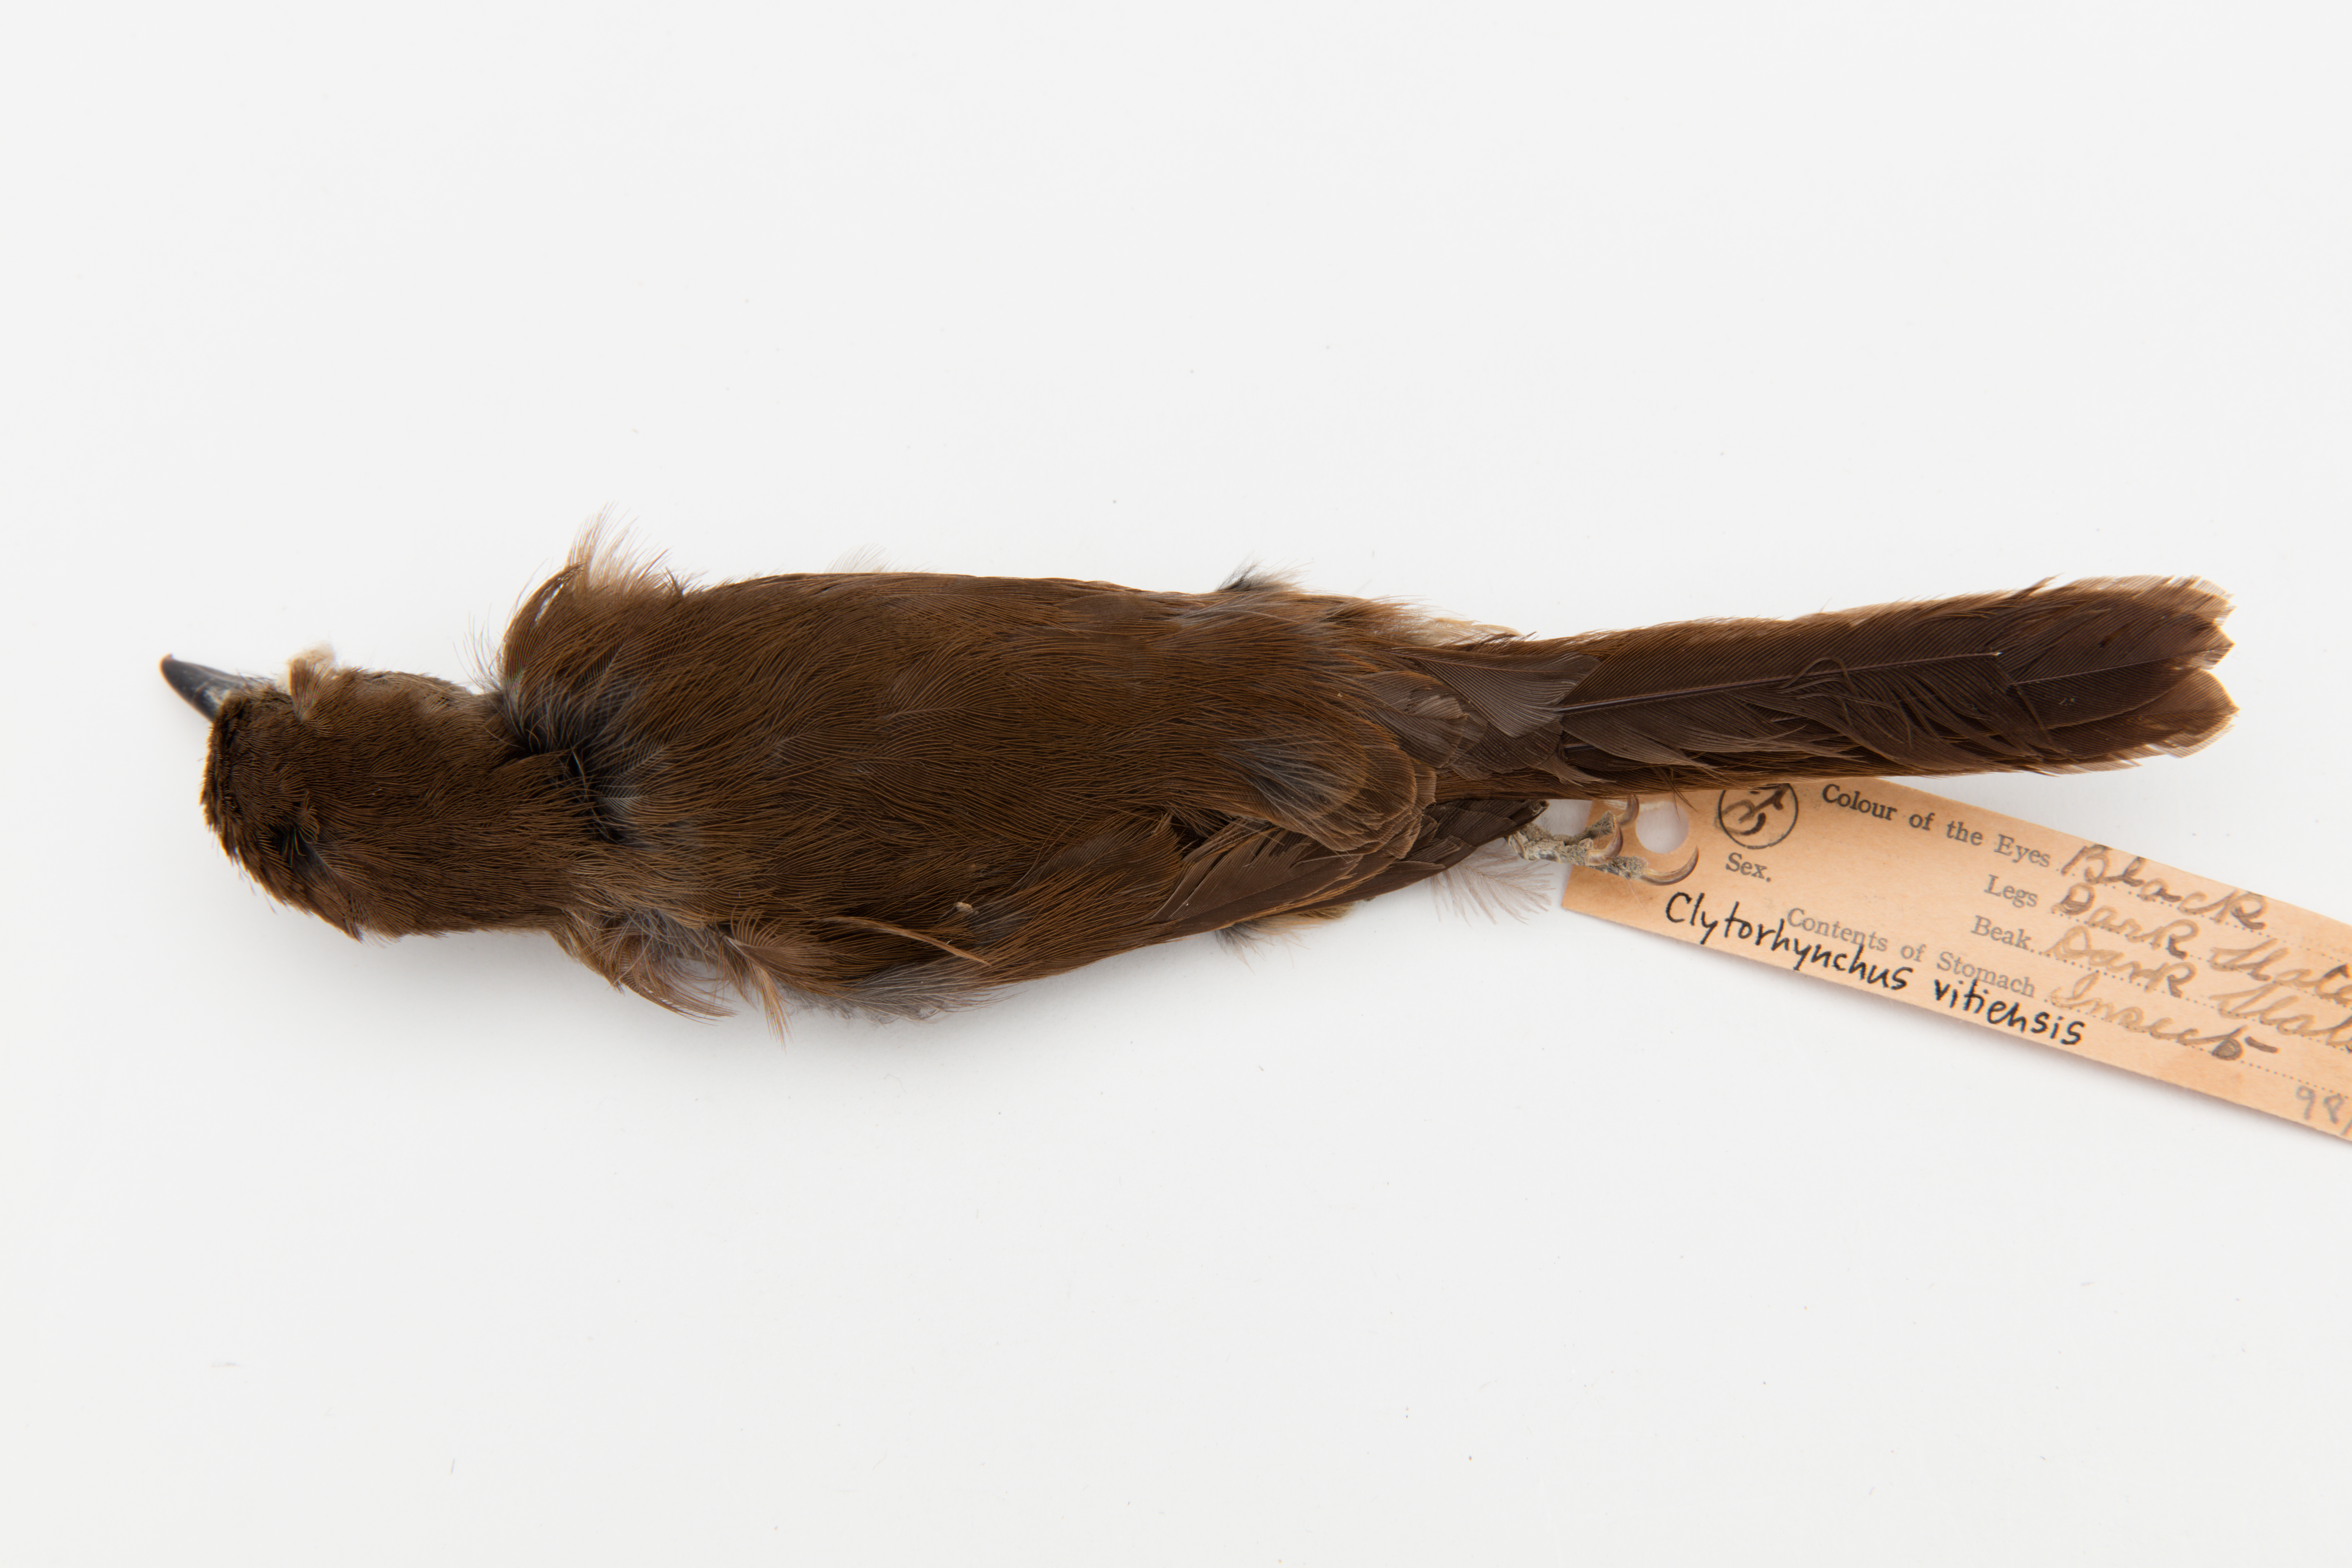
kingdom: Animalia
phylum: Chordata
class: Aves
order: Passeriformes
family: Monarchidae
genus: Clytorhynchus
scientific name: Clytorhynchus vitiensis
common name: Fiji shrikebill
